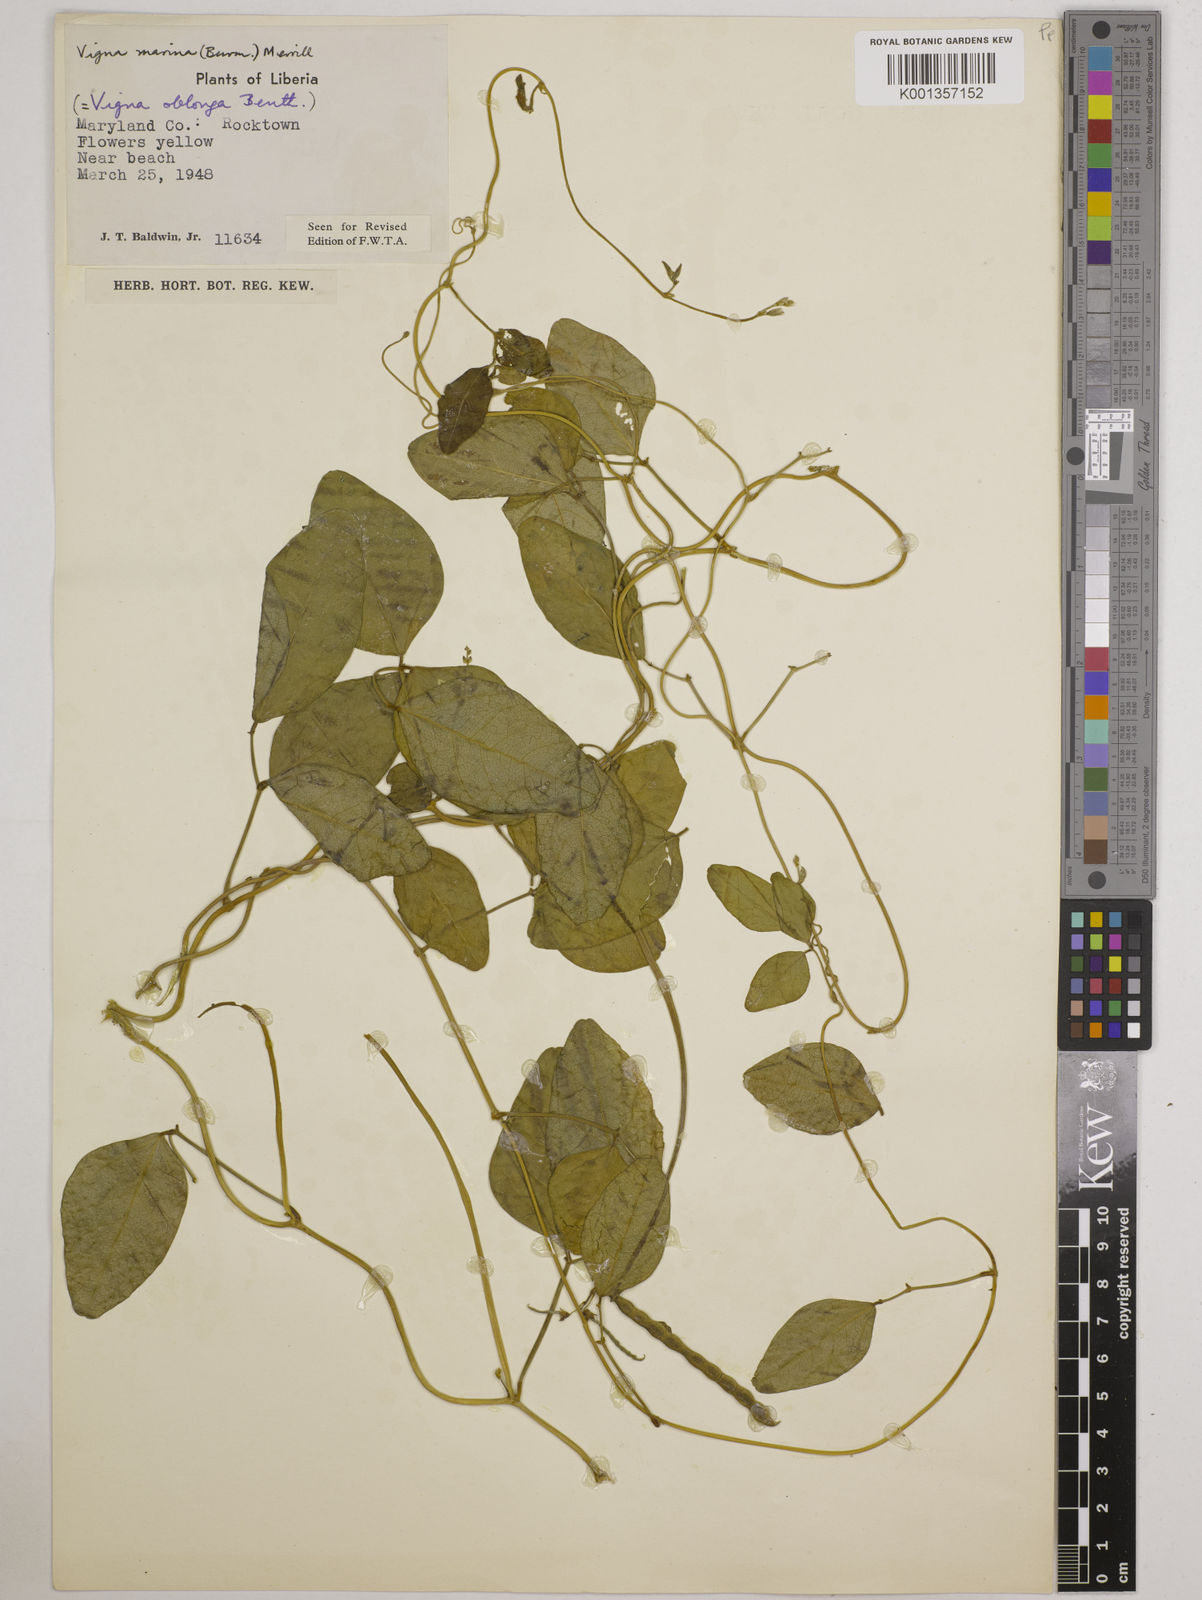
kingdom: Plantae
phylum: Tracheophyta
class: Magnoliopsida
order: Fabales
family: Fabaceae
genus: Vigna
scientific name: Vigna marina
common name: Dune-bean
